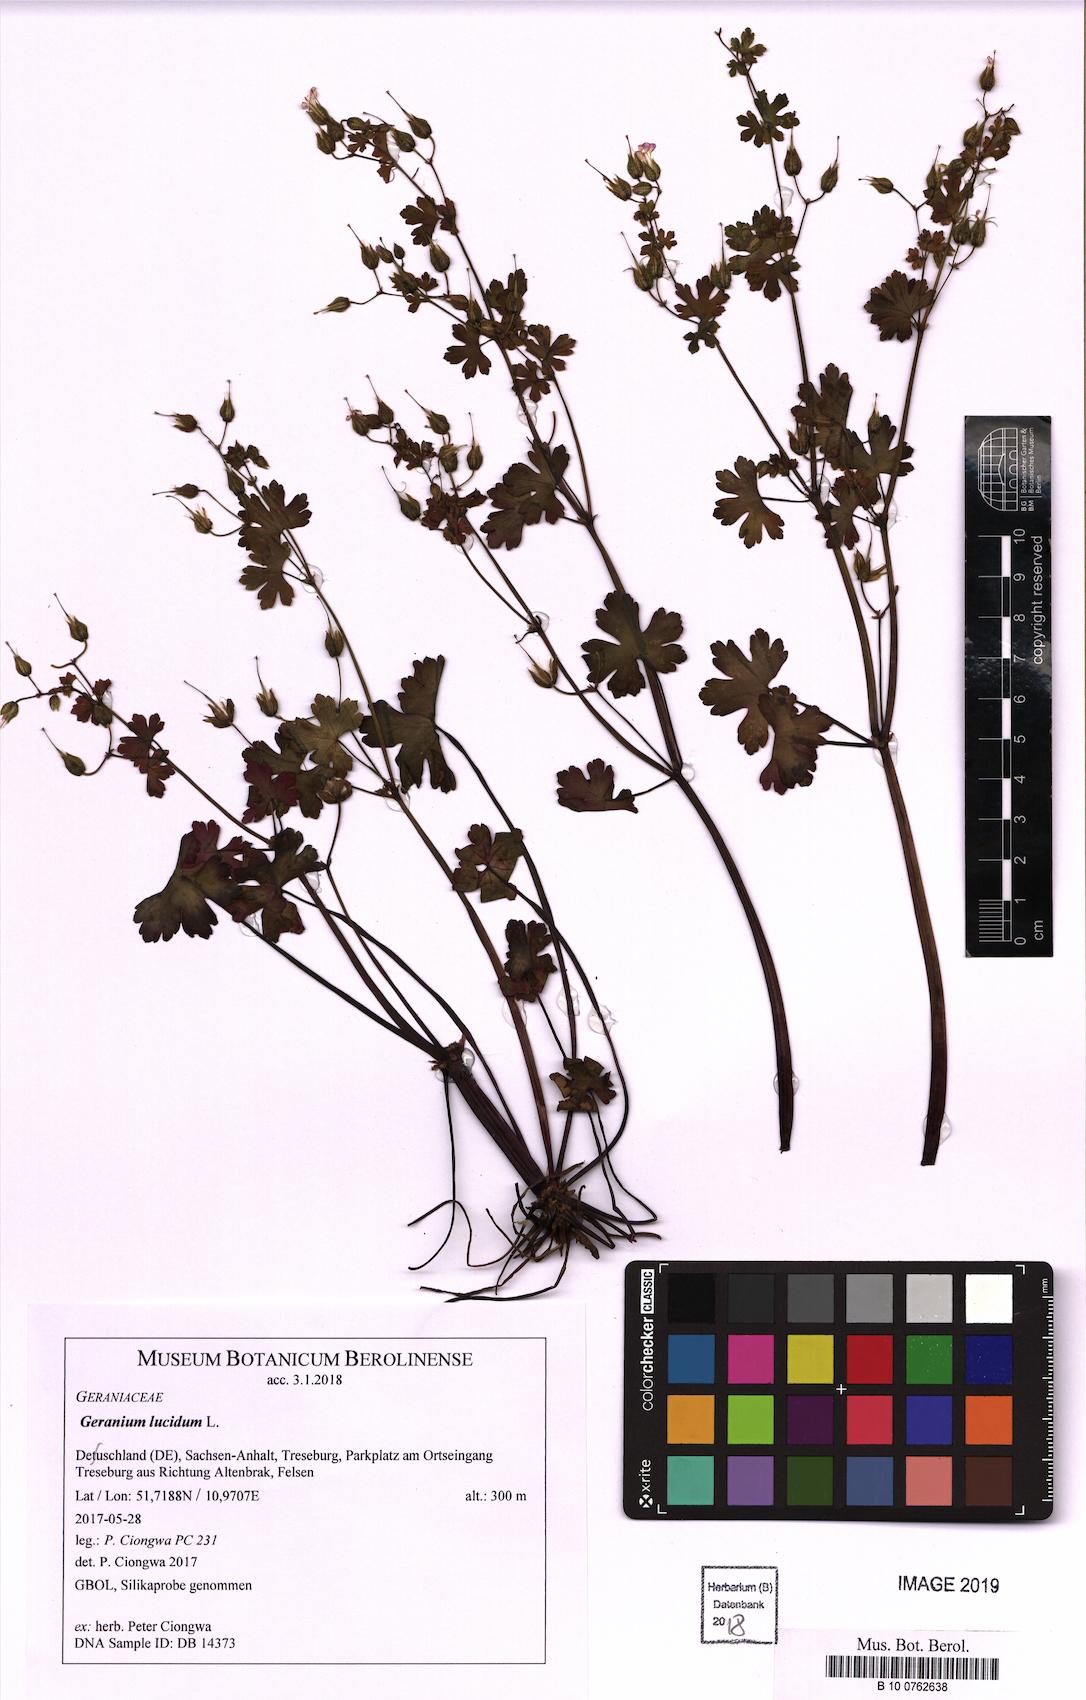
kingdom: Plantae
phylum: Tracheophyta
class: Magnoliopsida
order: Geraniales
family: Geraniaceae
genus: Geranium
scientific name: Geranium lucidum
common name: Shining crane's-bill
